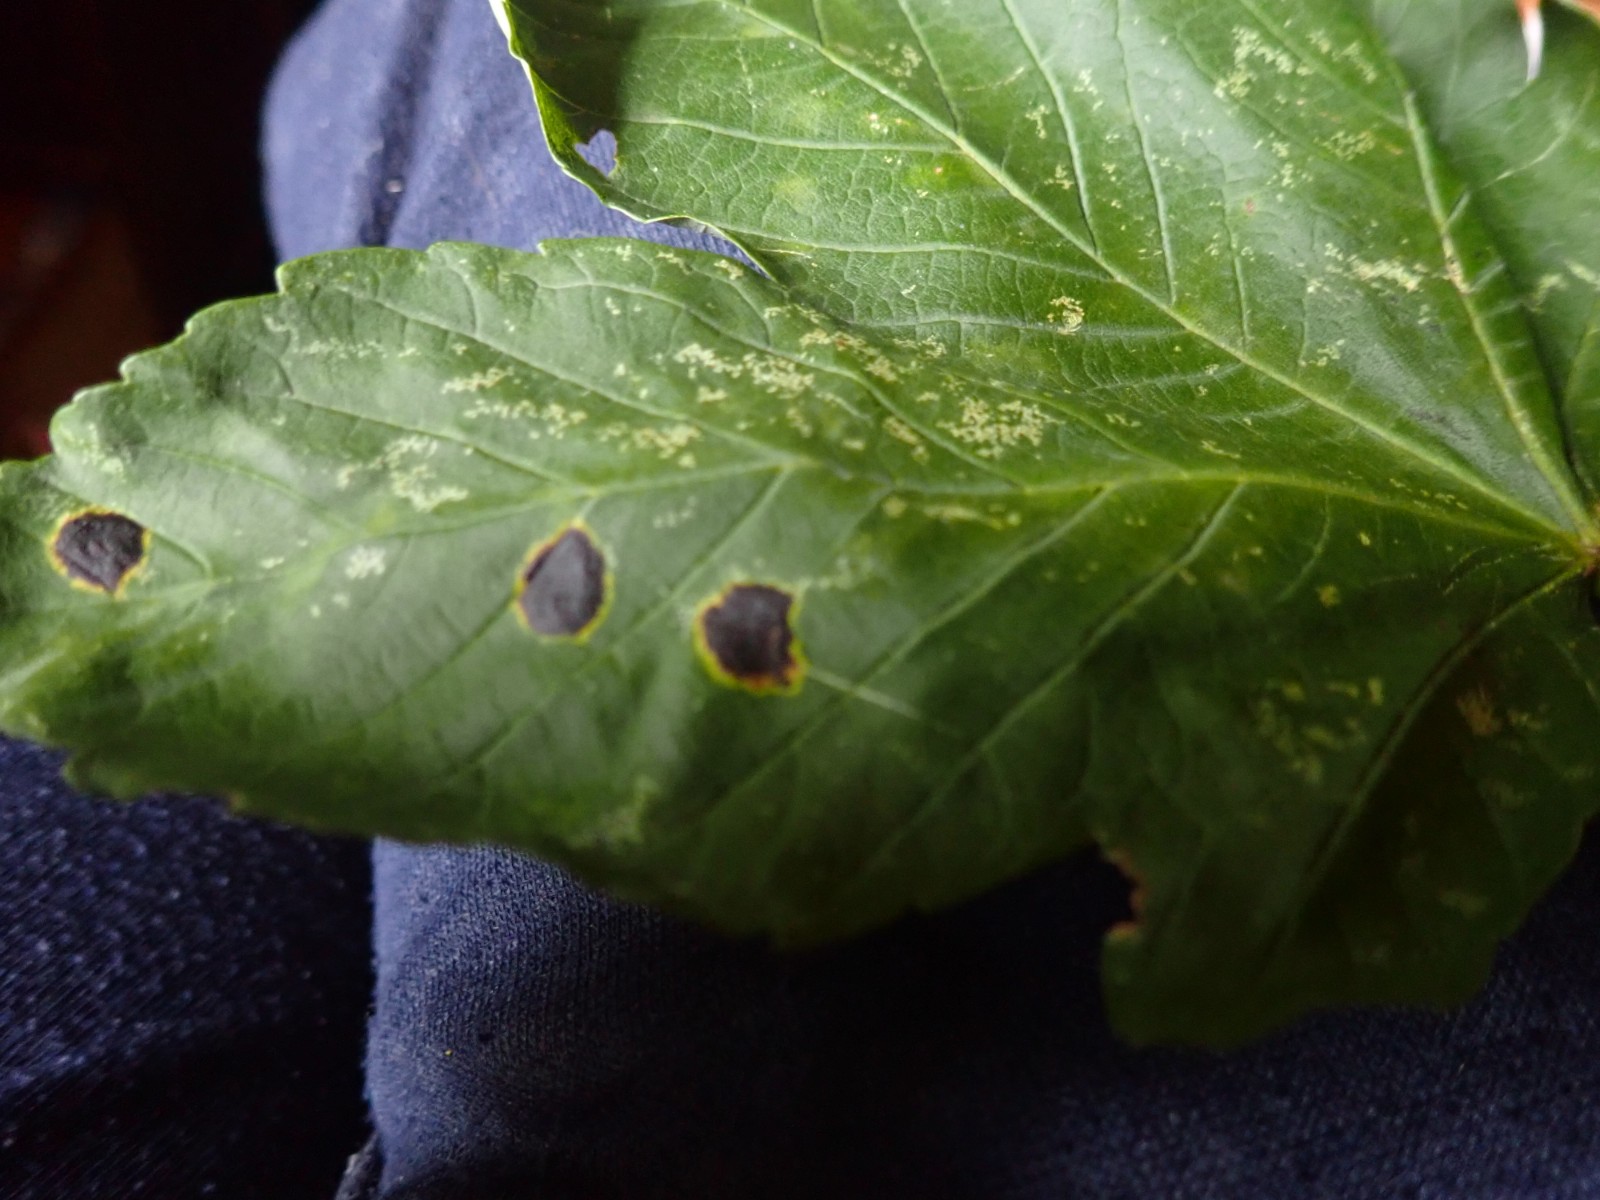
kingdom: Fungi
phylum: Ascomycota
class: Leotiomycetes
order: Rhytismatales
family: Rhytismataceae
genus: Rhytisma
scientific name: Rhytisma acerinum
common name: ahorn-rynkeplet
